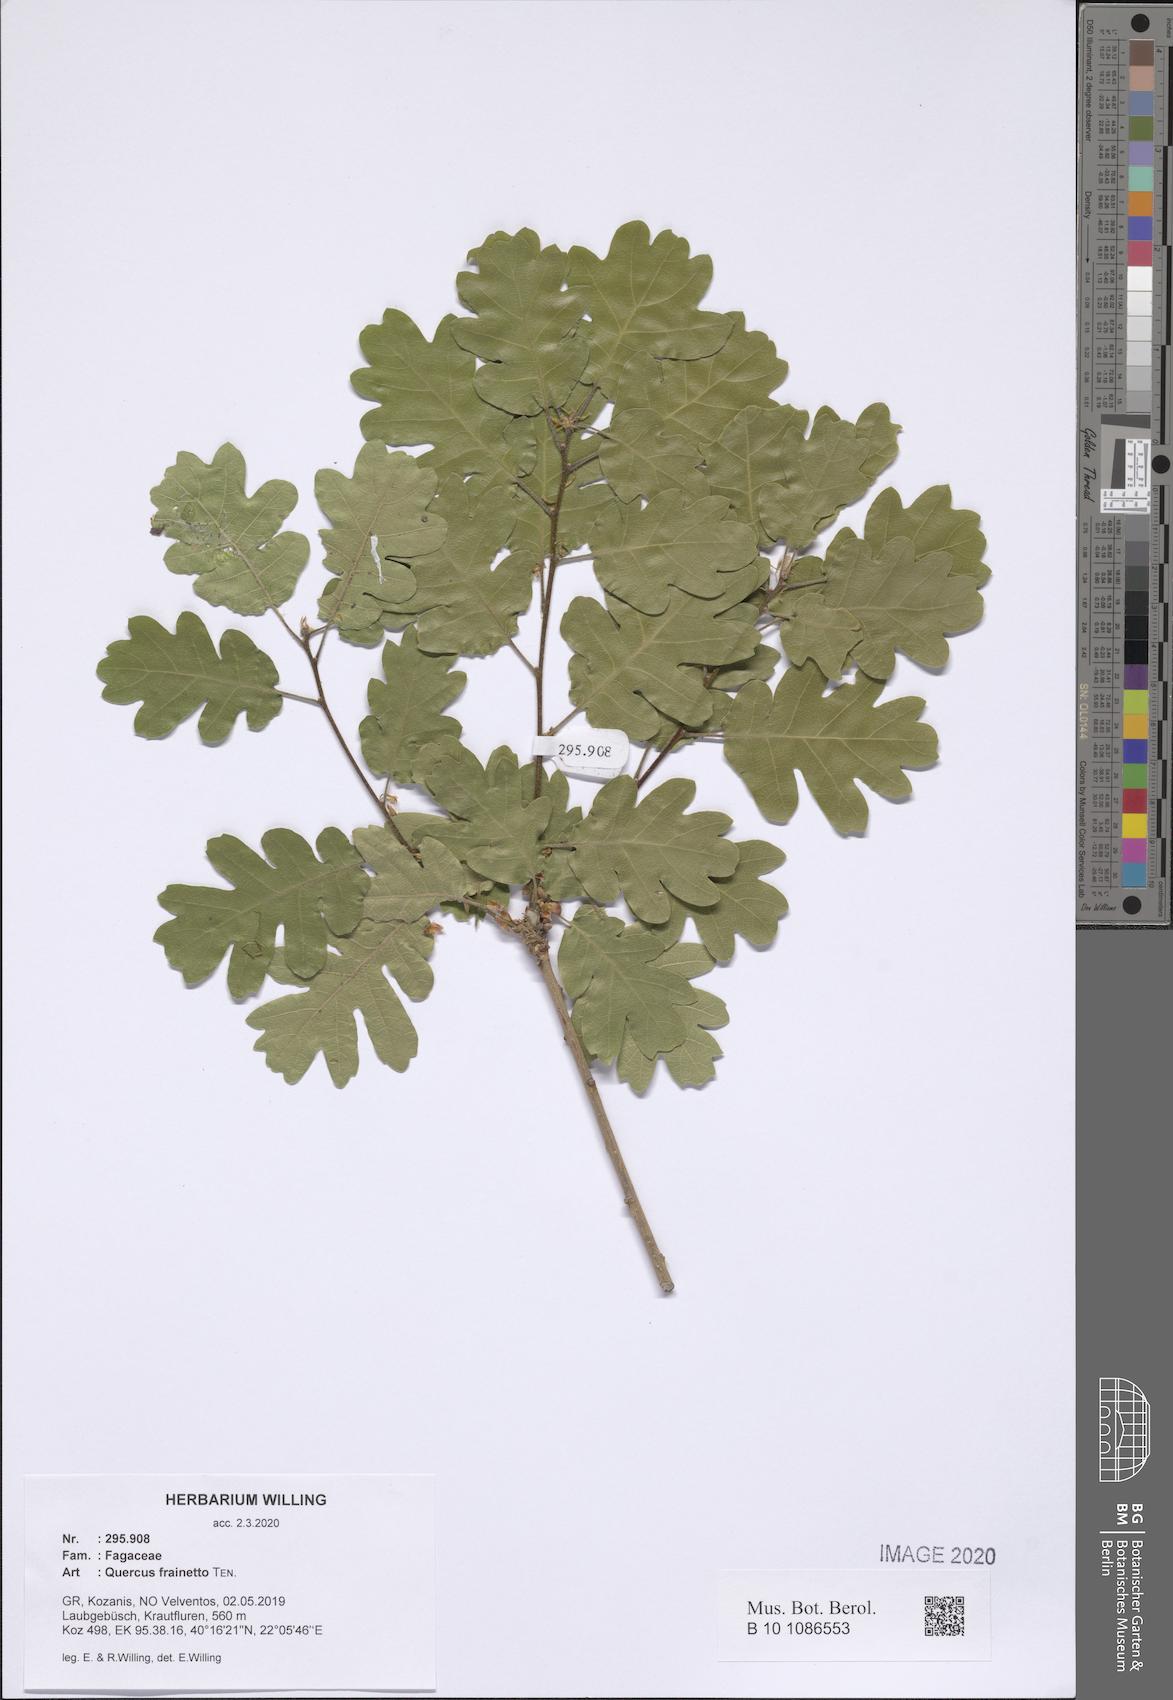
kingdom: Plantae
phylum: Tracheophyta
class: Magnoliopsida
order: Fagales
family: Fagaceae
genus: Quercus
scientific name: Quercus conferta
